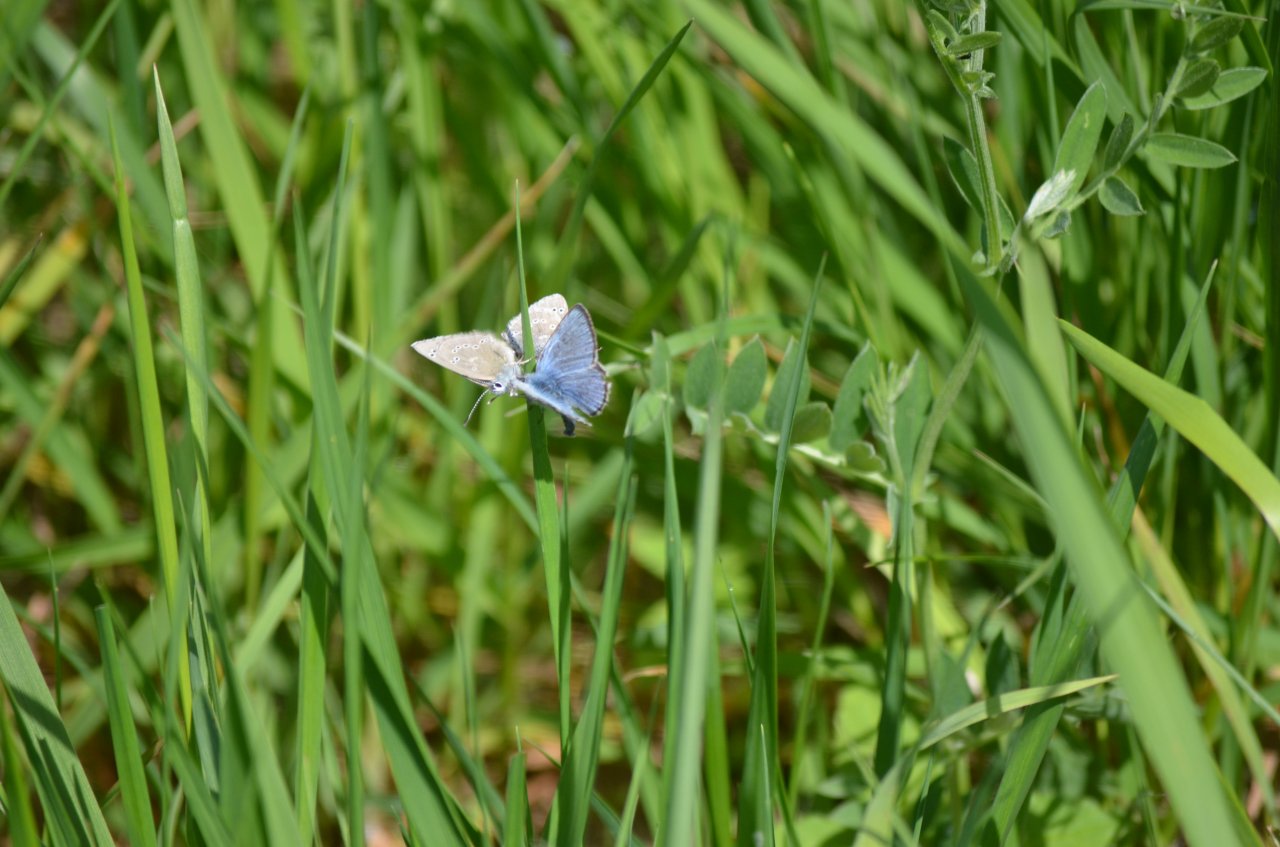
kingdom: Animalia
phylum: Arthropoda
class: Insecta
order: Lepidoptera
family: Lycaenidae
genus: Glaucopsyche
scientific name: Glaucopsyche lygdamus
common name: Silvery Blue
